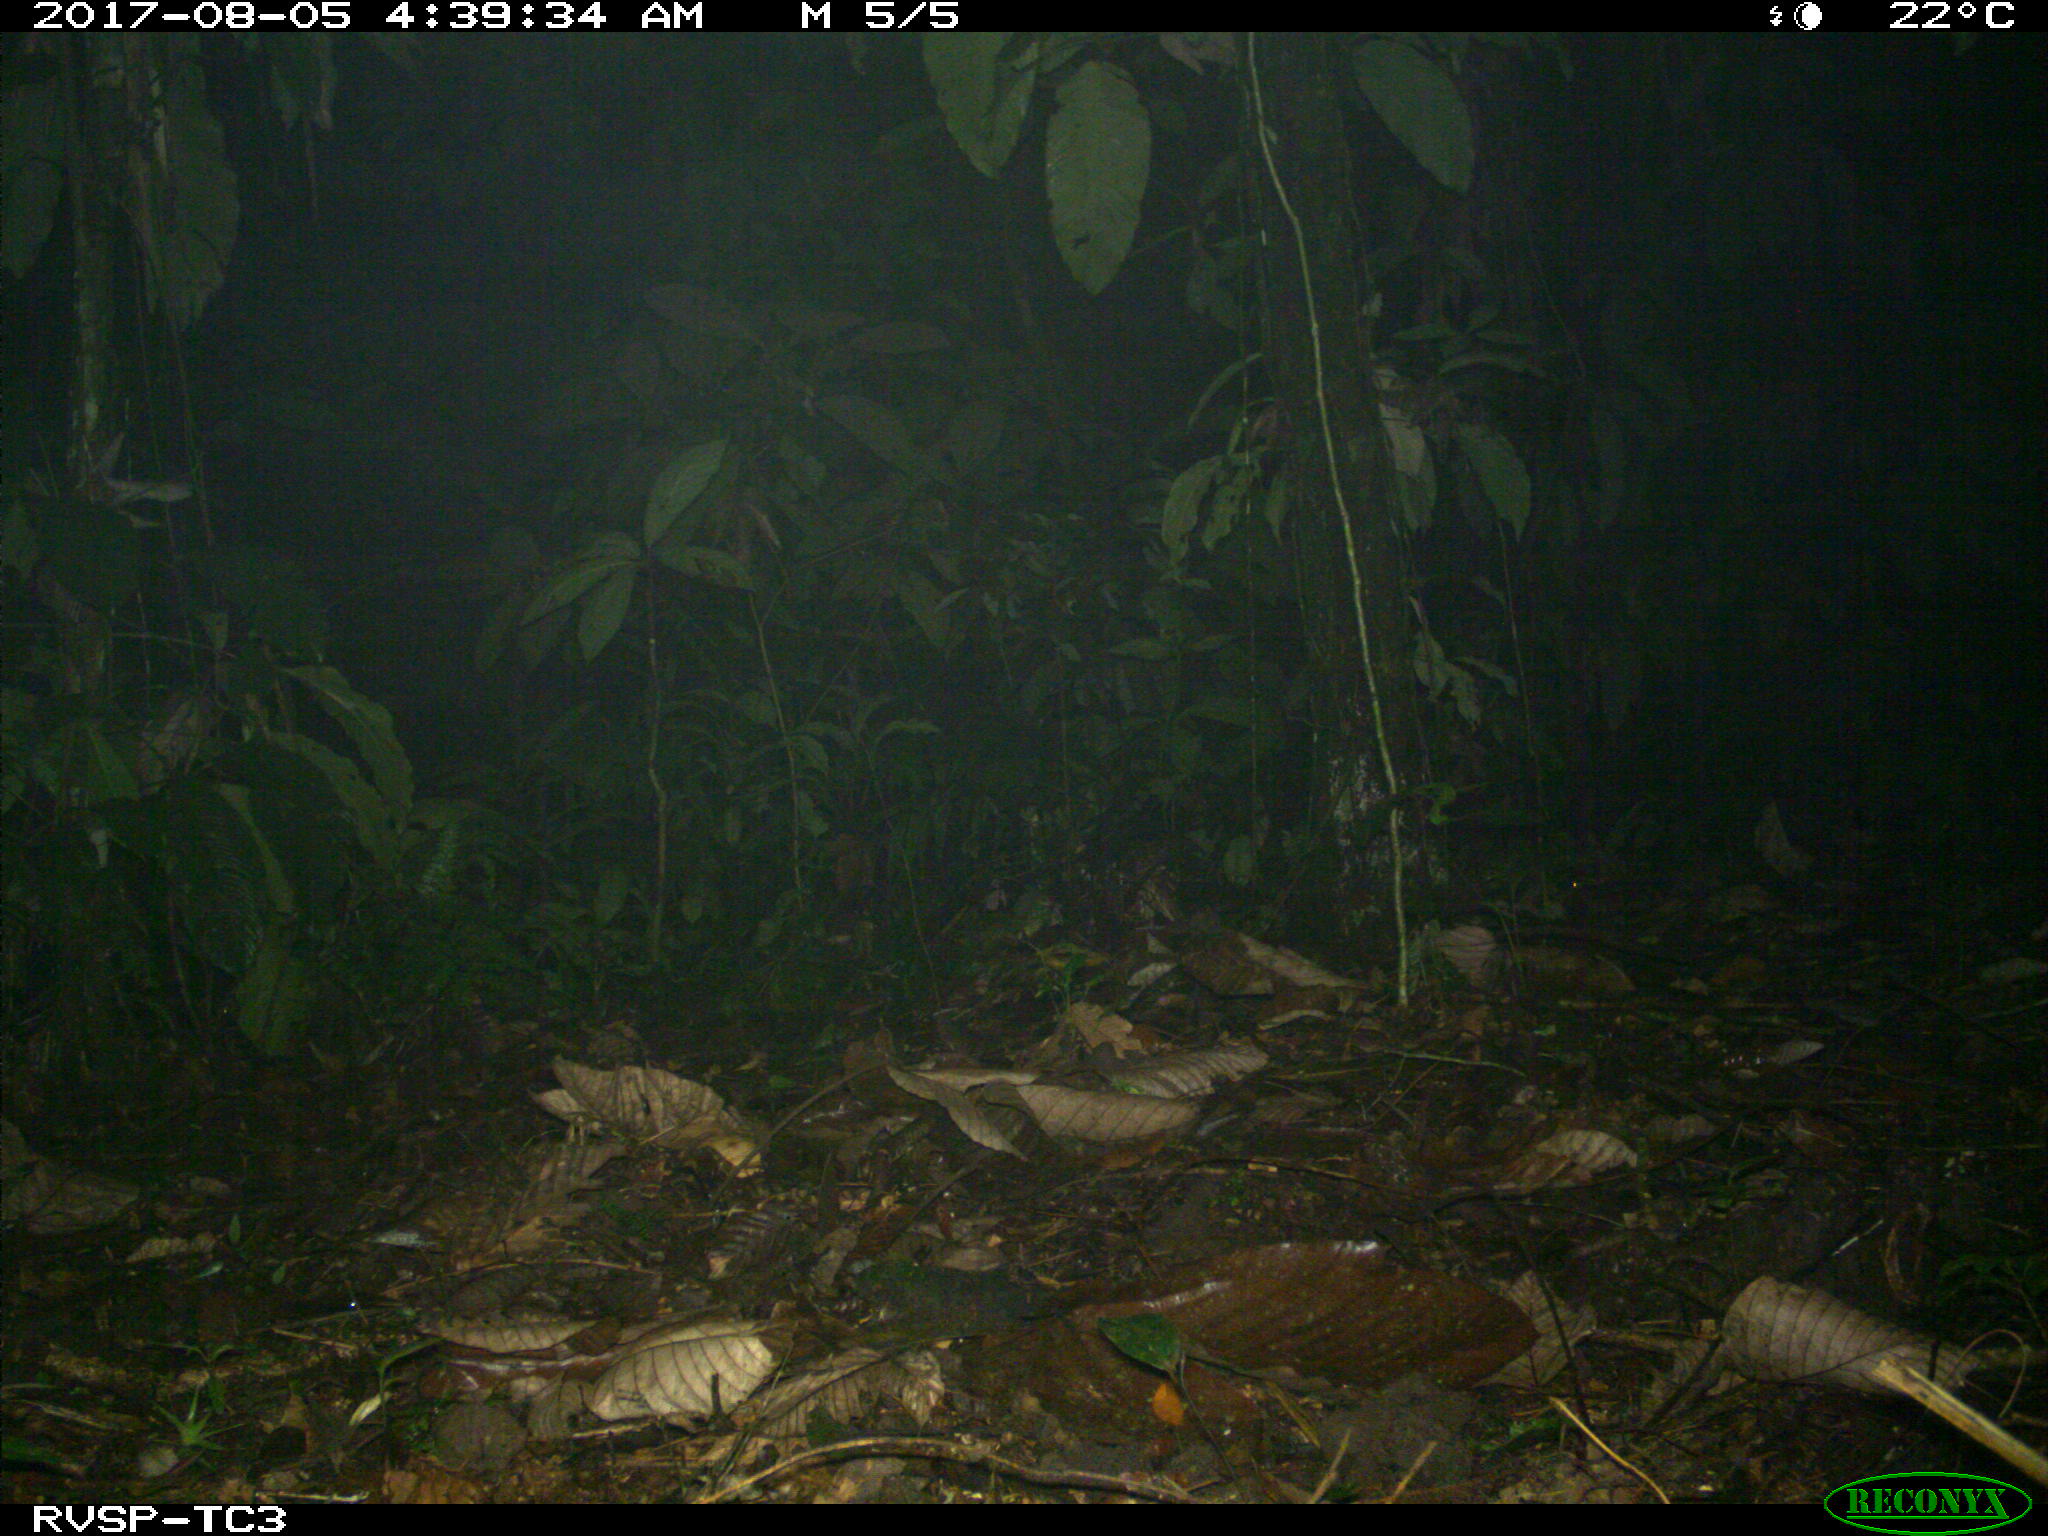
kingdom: Animalia
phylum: Chordata
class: Mammalia
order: Rodentia
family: Cuniculidae
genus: Cuniculus
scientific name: Cuniculus paca
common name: Lowland paca
